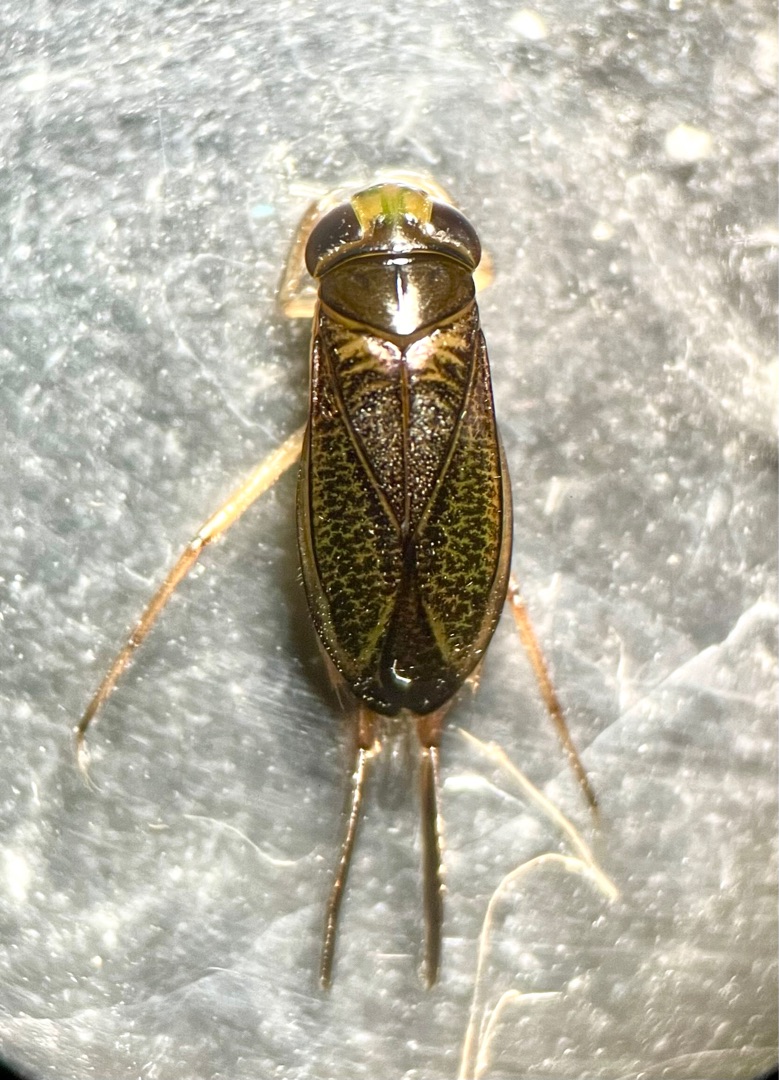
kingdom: Animalia
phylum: Arthropoda
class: Insecta
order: Hemiptera
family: Corixidae
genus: Cymatia
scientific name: Cymatia bonsdorffii
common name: Stor rovbugsvømmer
